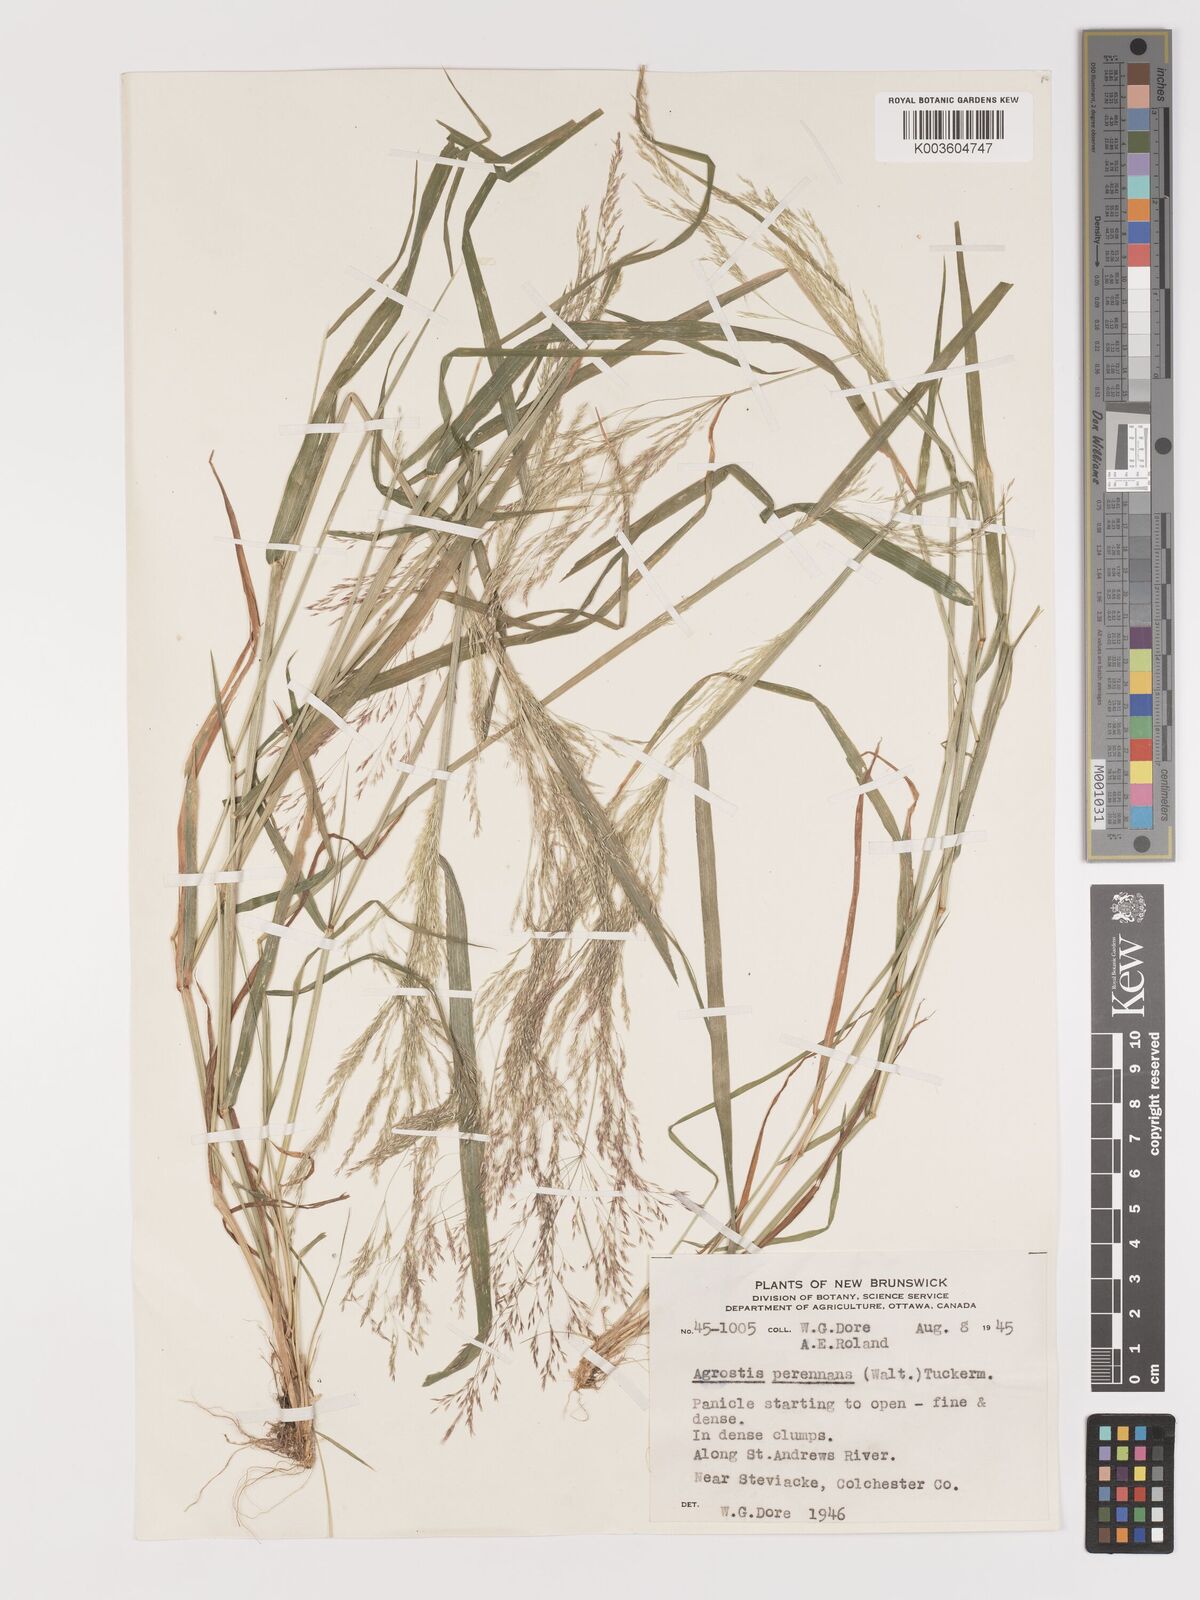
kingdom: Plantae
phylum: Tracheophyta
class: Liliopsida
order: Poales
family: Poaceae
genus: Agrostis
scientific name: Agrostis perennans
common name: Autumn bent
